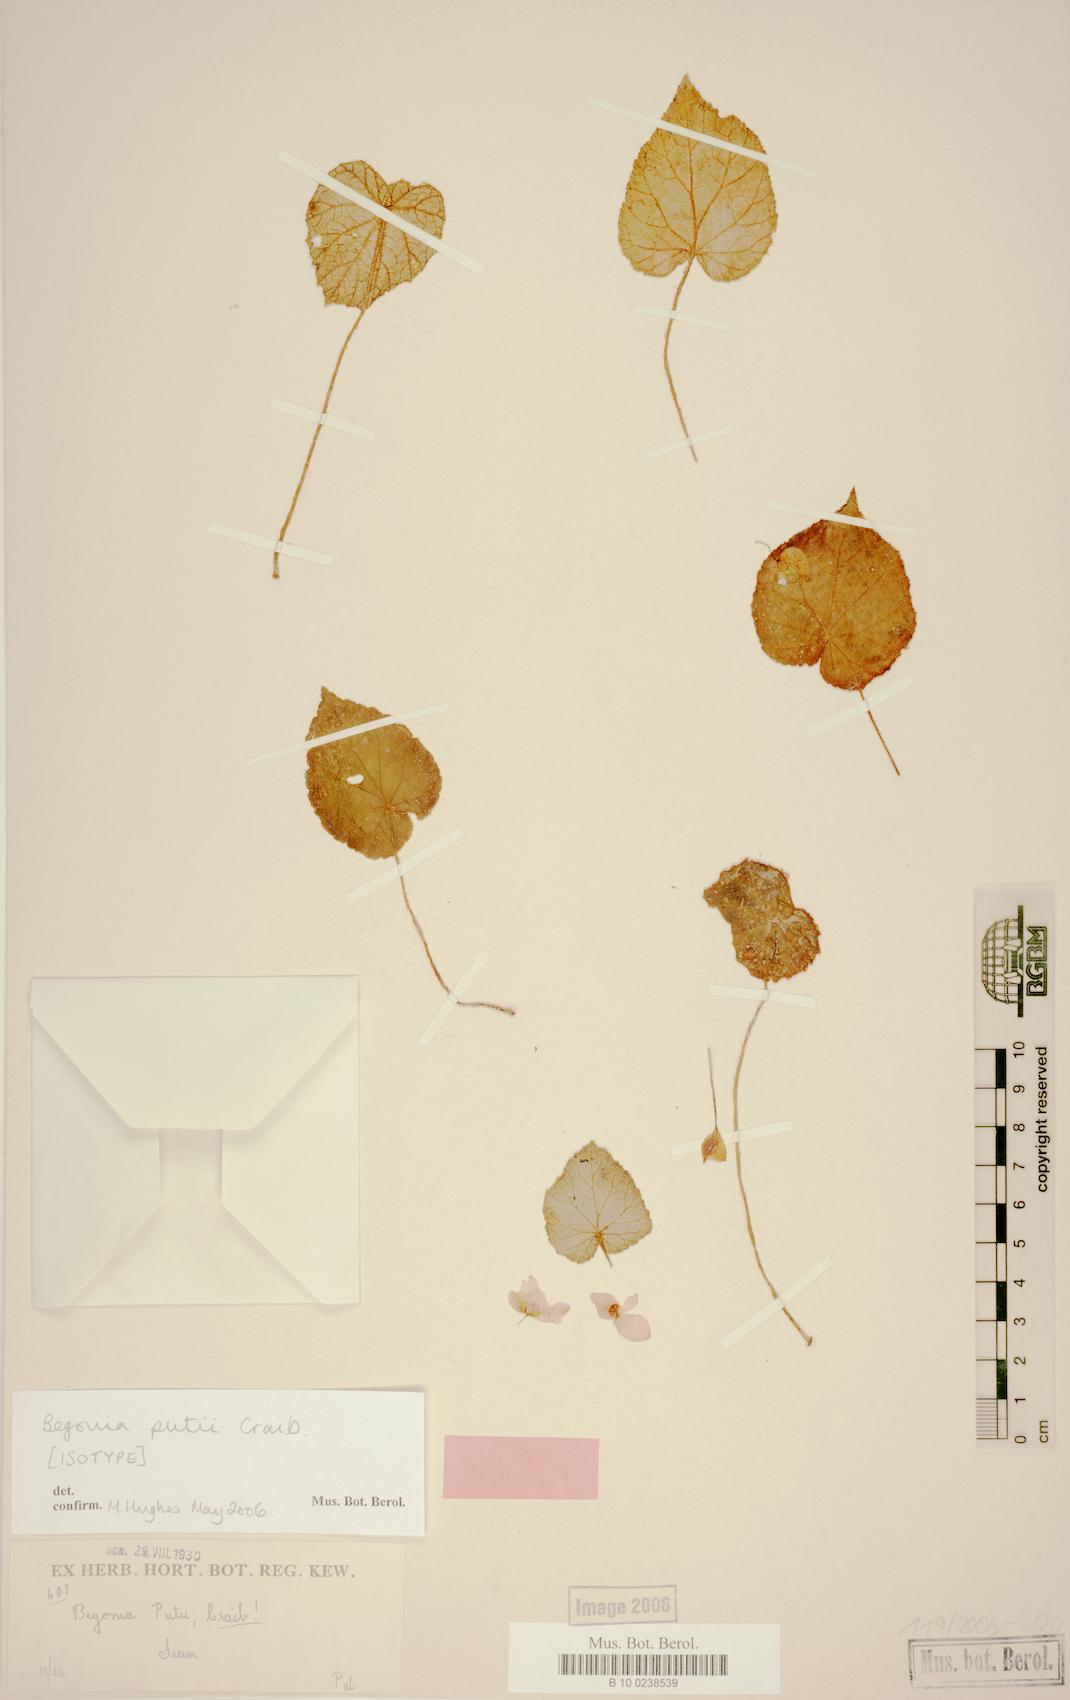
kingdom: Plantae
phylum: Tracheophyta
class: Magnoliopsida
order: Cucurbitales
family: Begoniaceae
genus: Begonia
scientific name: Begonia putii
